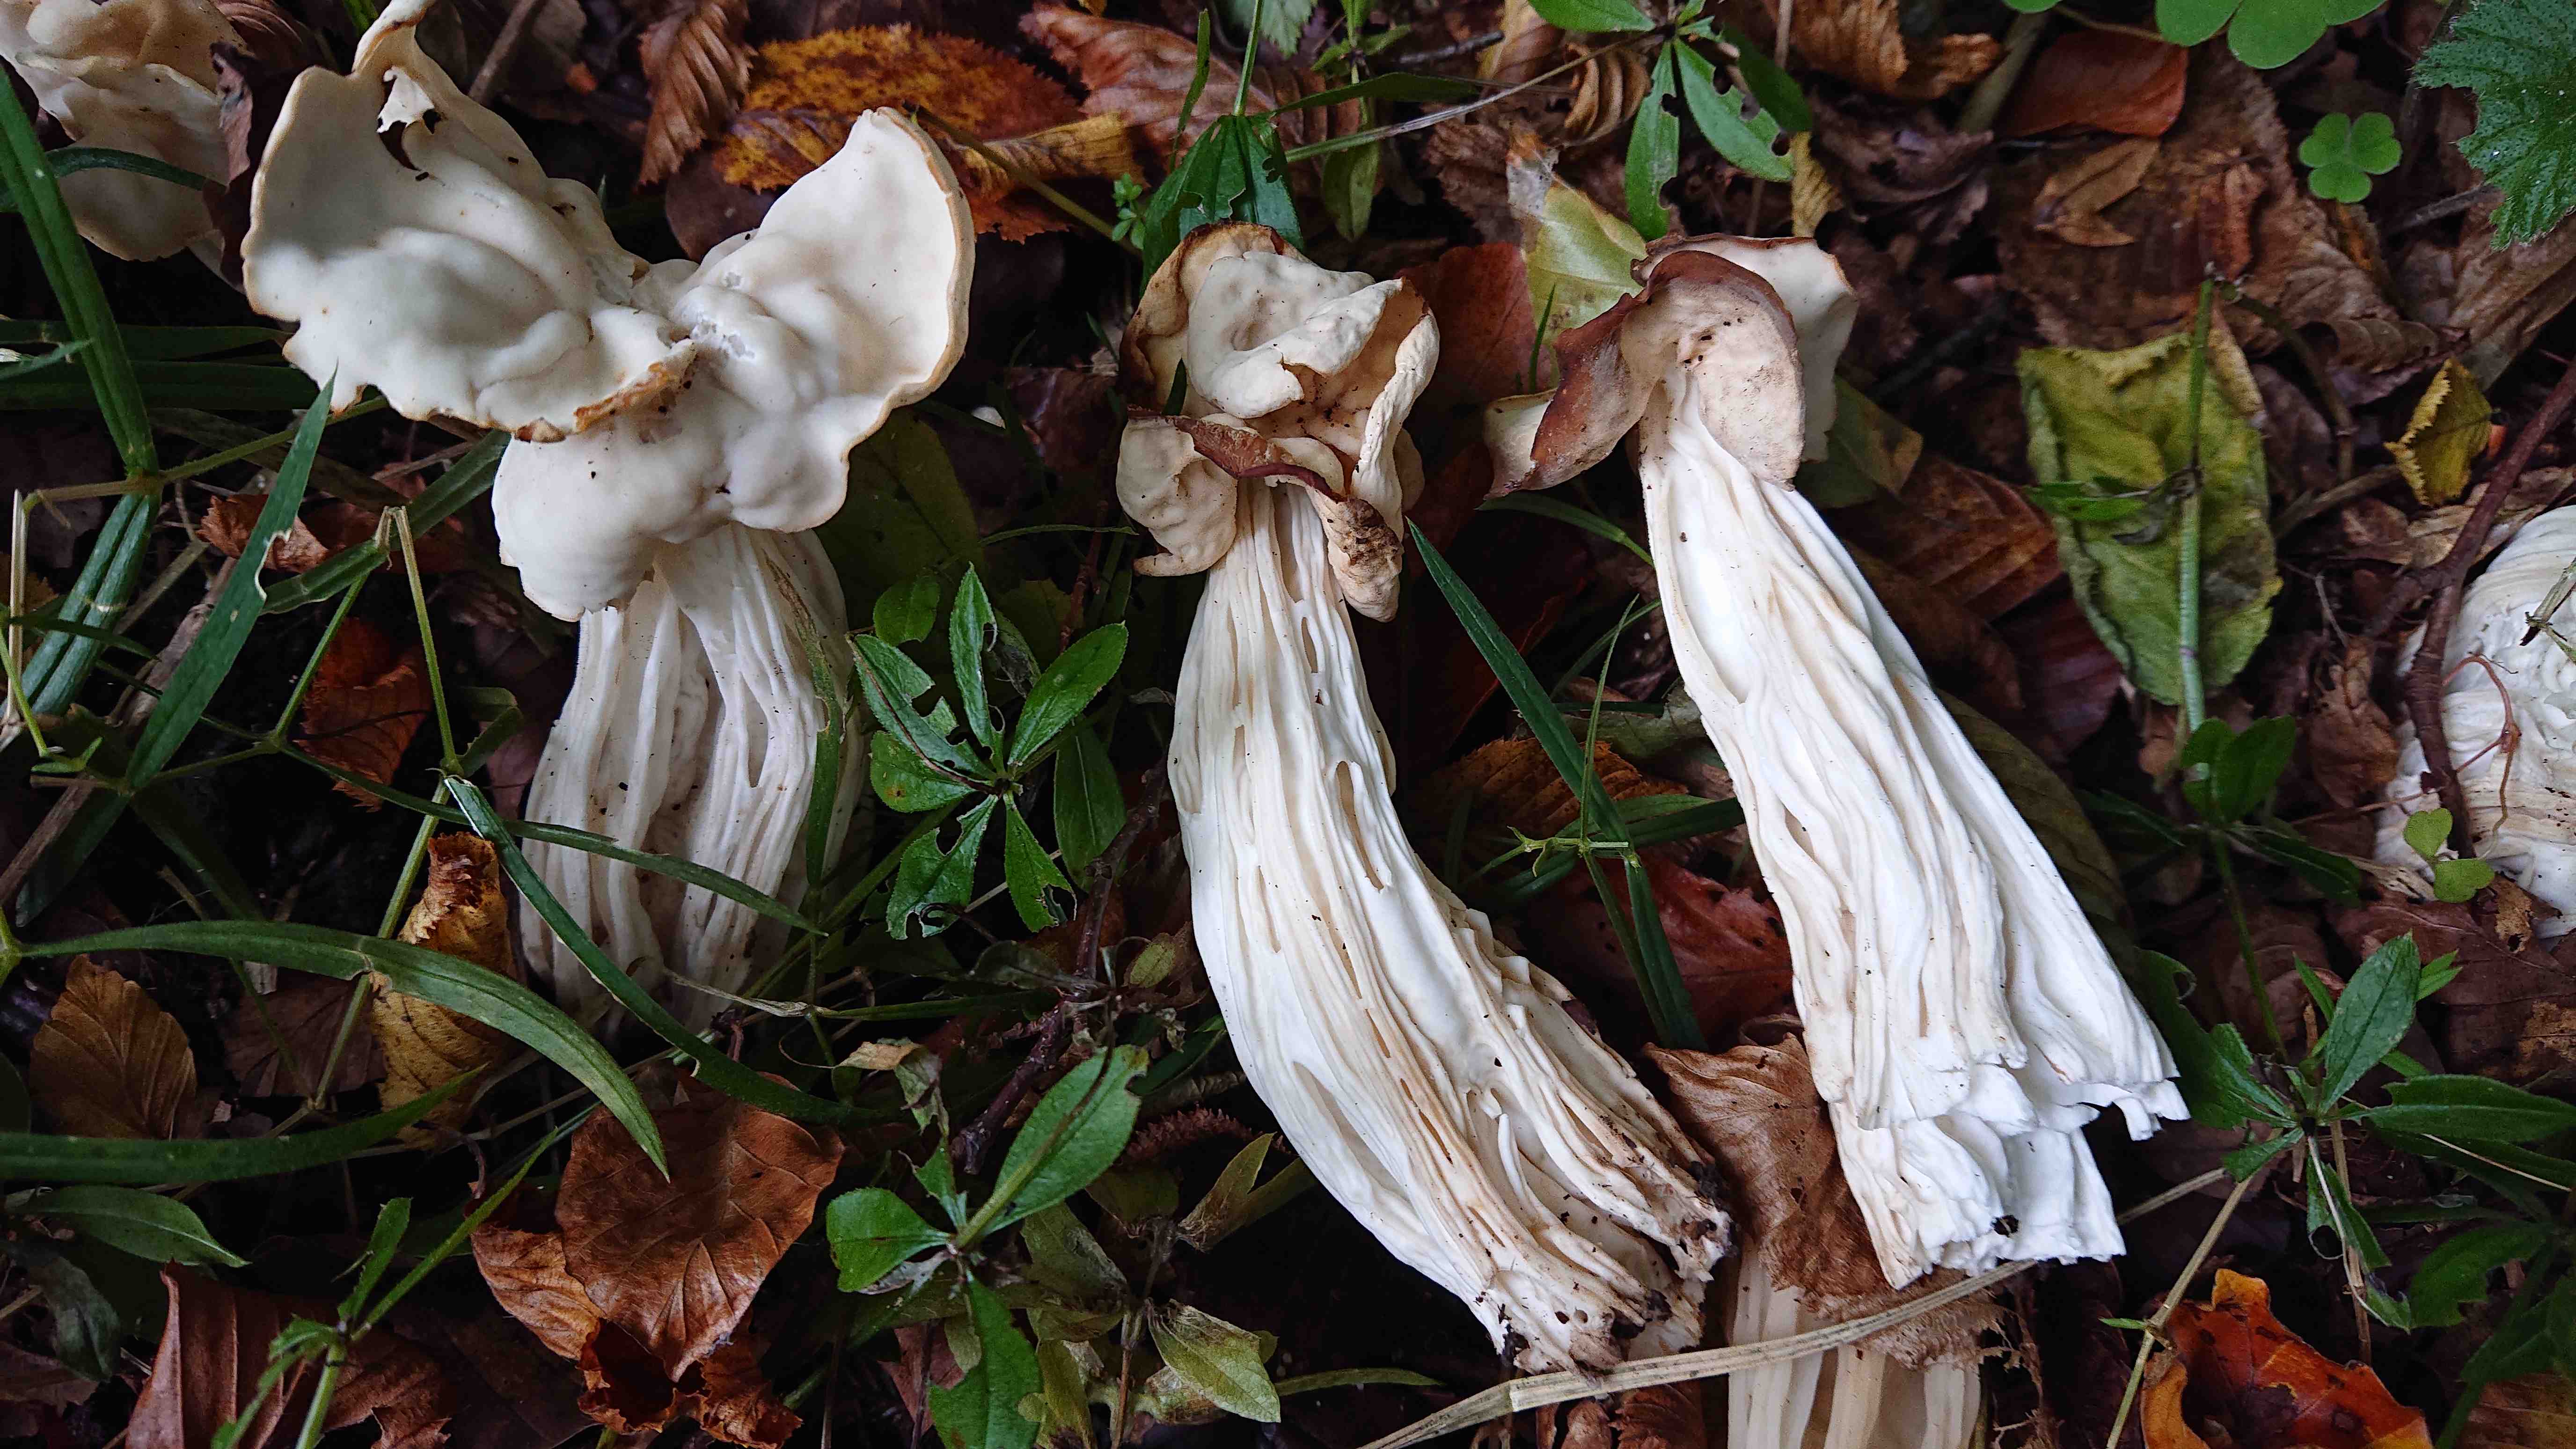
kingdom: Fungi
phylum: Ascomycota
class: Pezizomycetes
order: Pezizales
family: Helvellaceae
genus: Helvella
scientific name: Helvella crispa
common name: kruset foldhat
